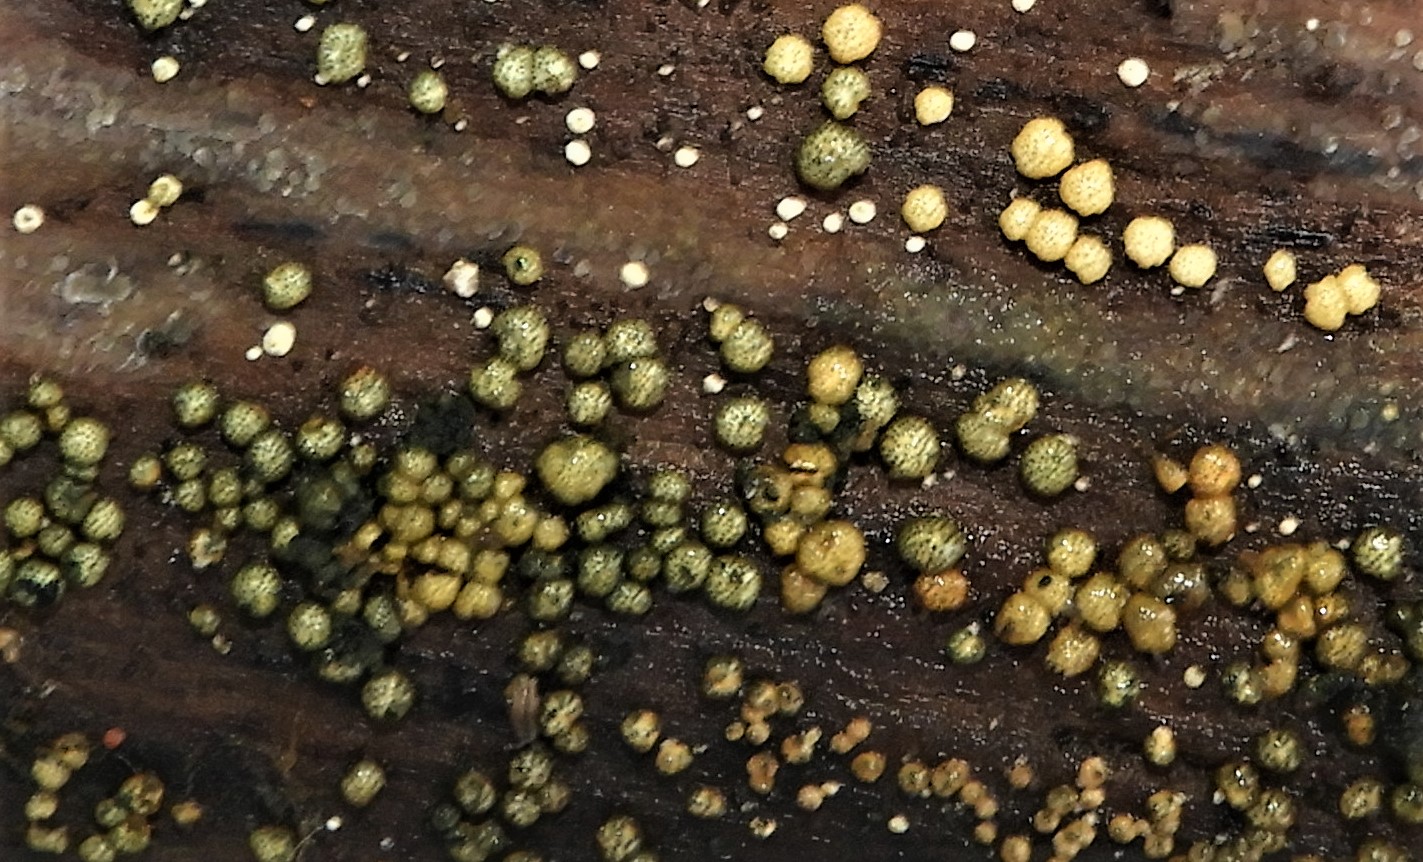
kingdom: Fungi
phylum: Ascomycota
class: Sordariomycetes
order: Hypocreales
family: Hypocreaceae
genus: Trichoderma
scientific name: Trichoderma strictipile
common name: grønprikket kødkerne
